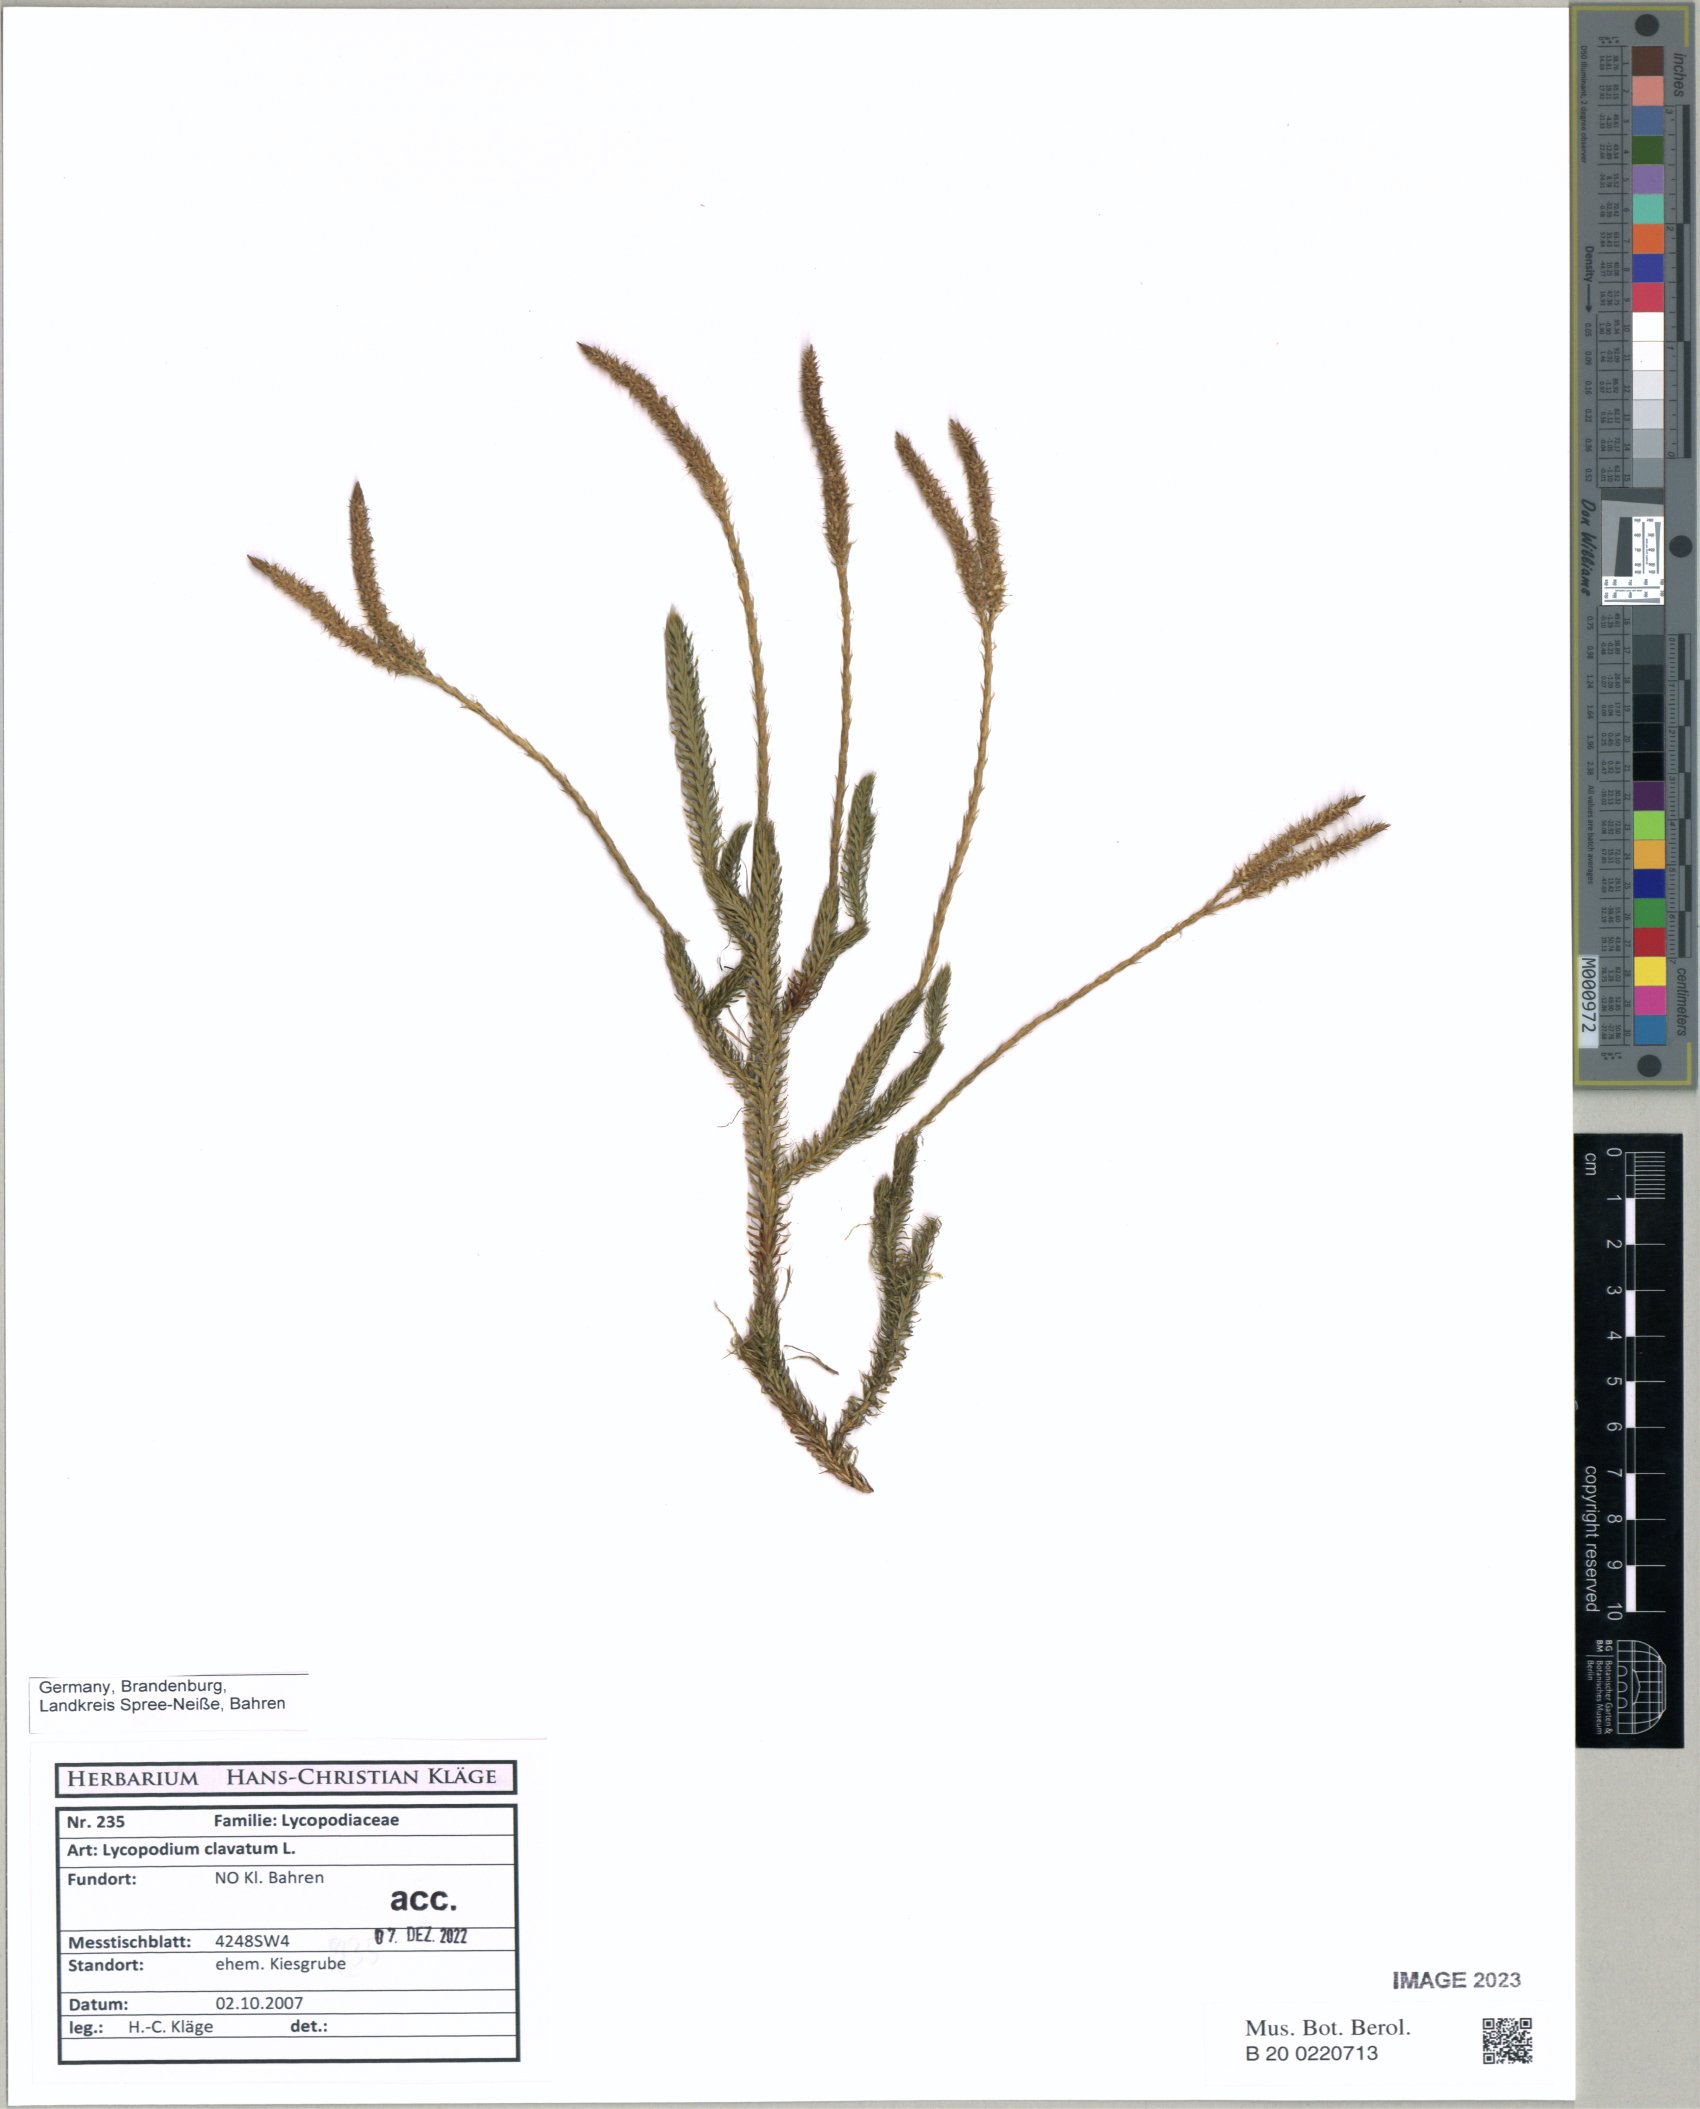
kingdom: Plantae
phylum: Tracheophyta
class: Lycopodiopsida
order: Lycopodiales
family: Lycopodiaceae
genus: Lycopodium
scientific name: Lycopodium clavatum
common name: Stag's-horn clubmoss
